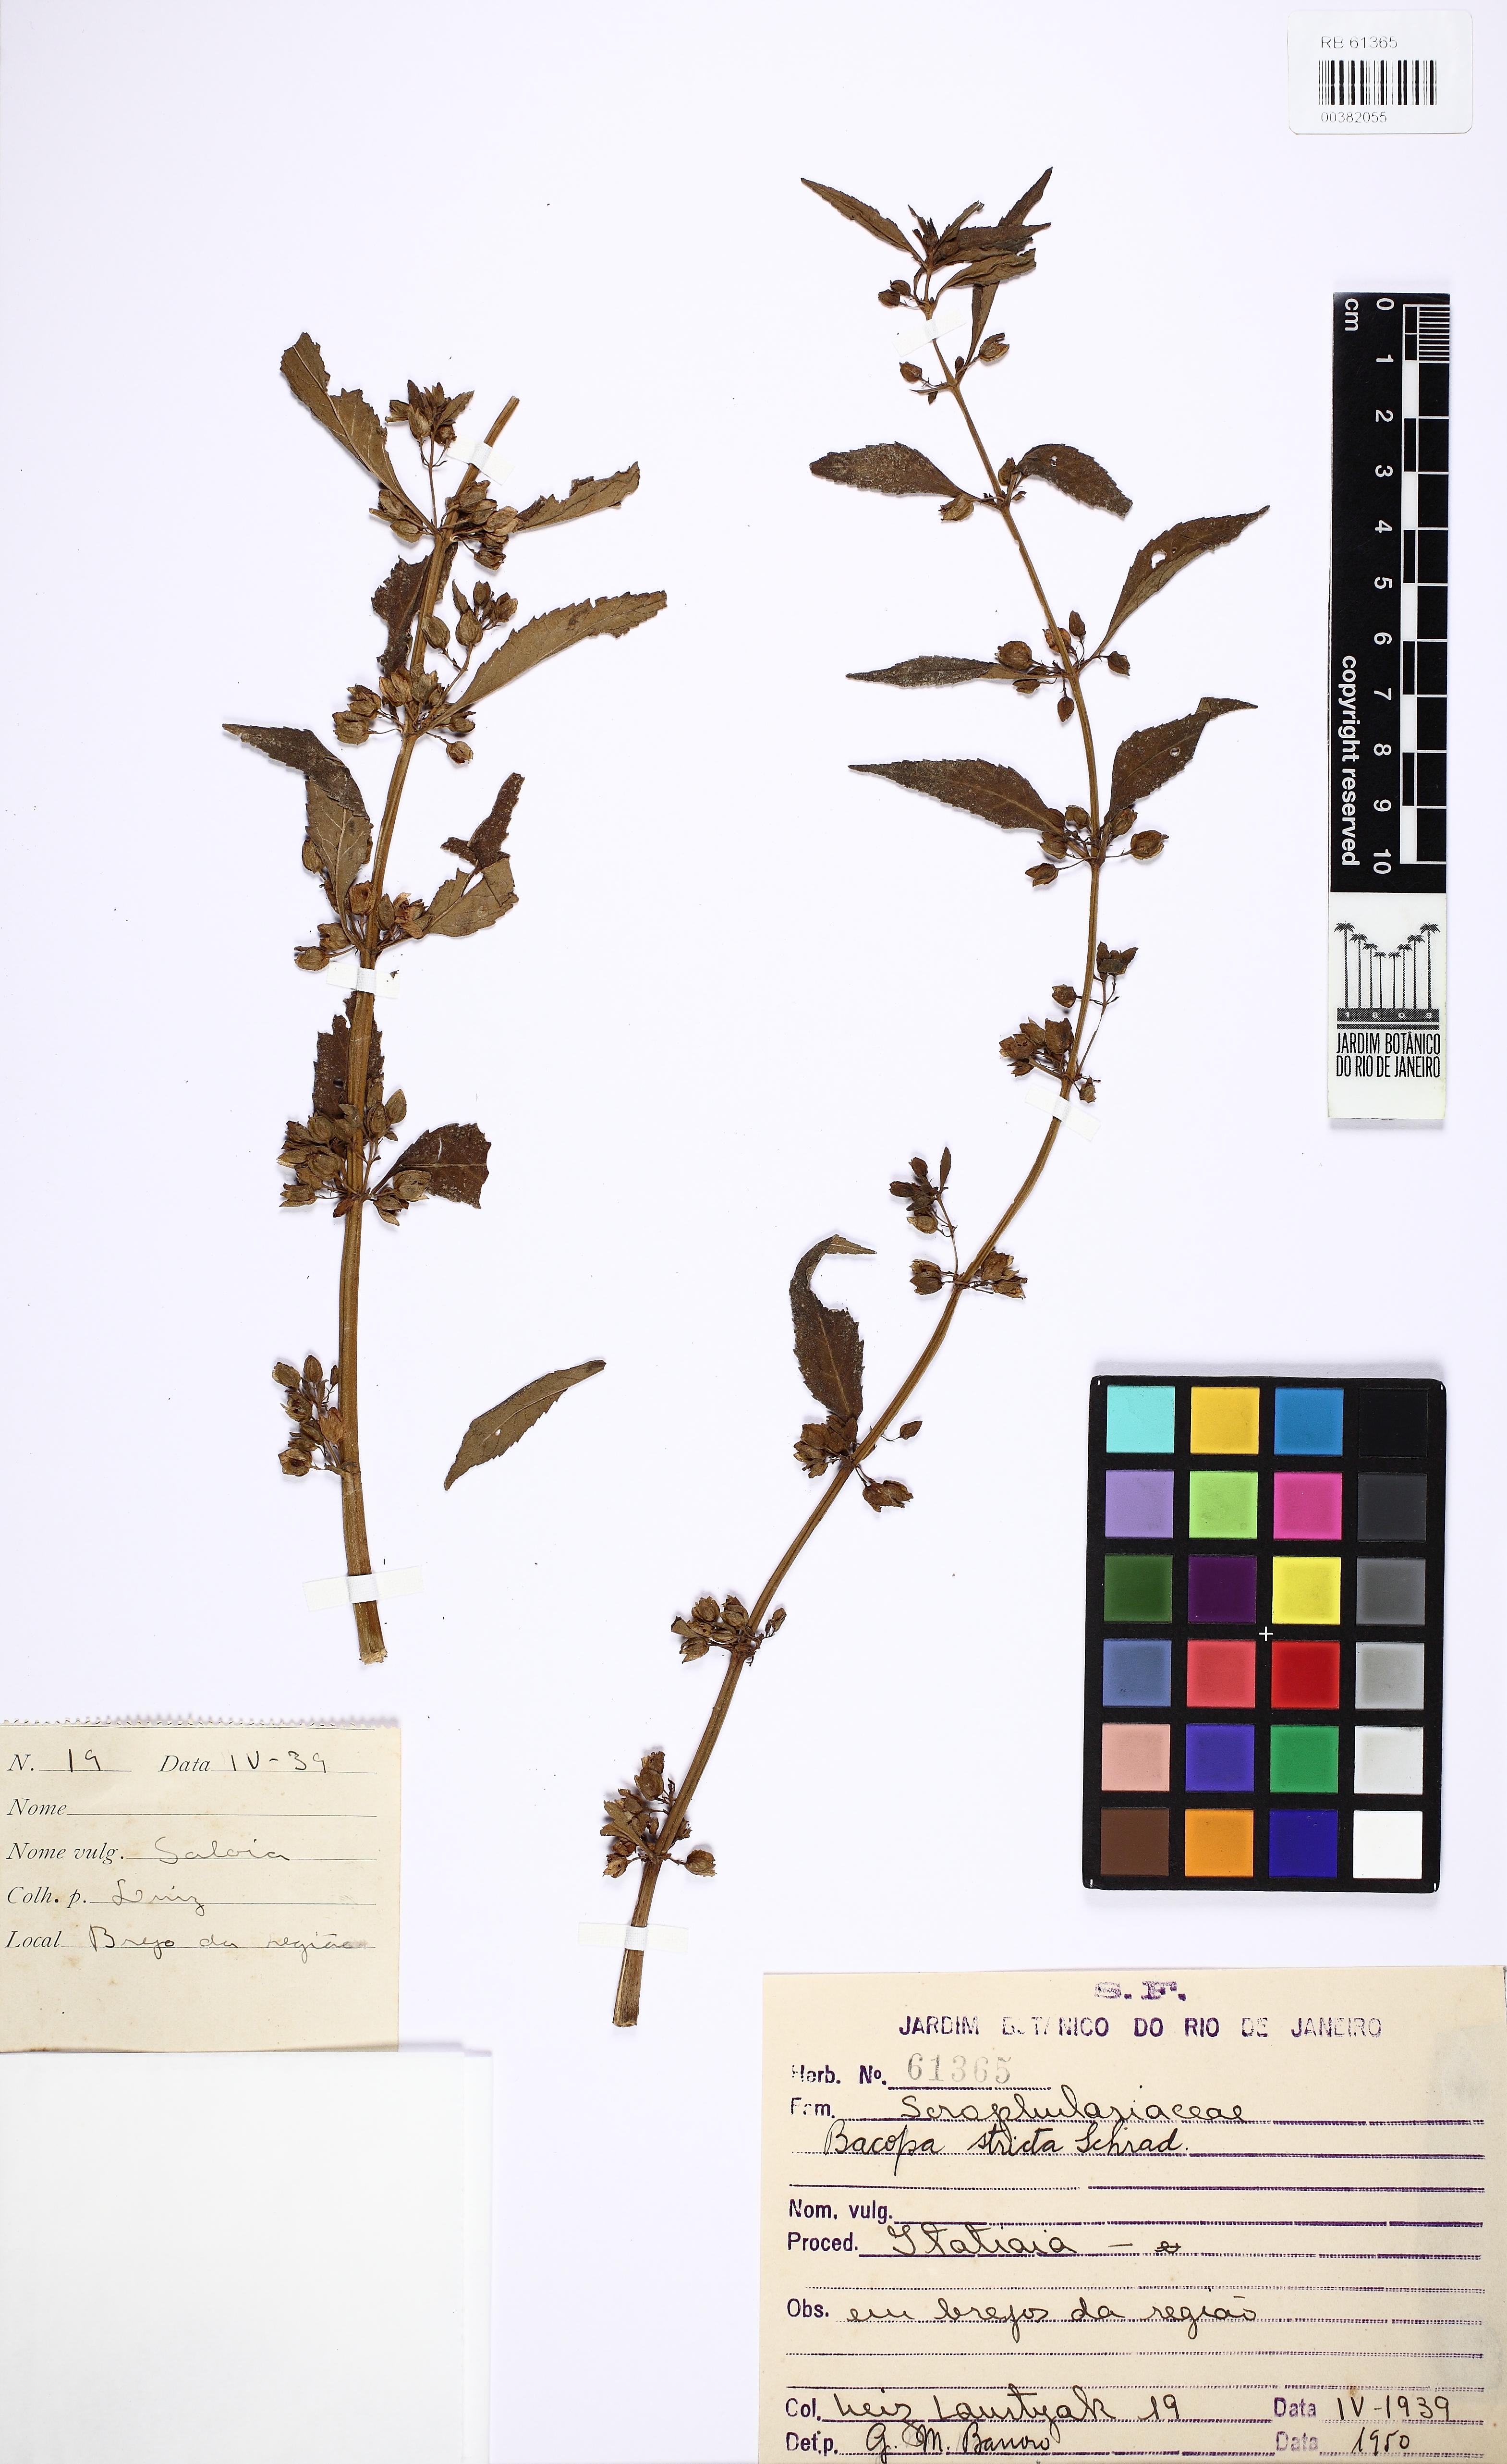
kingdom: Plantae
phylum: Tracheophyta
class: Magnoliopsida
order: Lamiales
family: Plantaginaceae
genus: Bacopa
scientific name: Bacopa stricta
